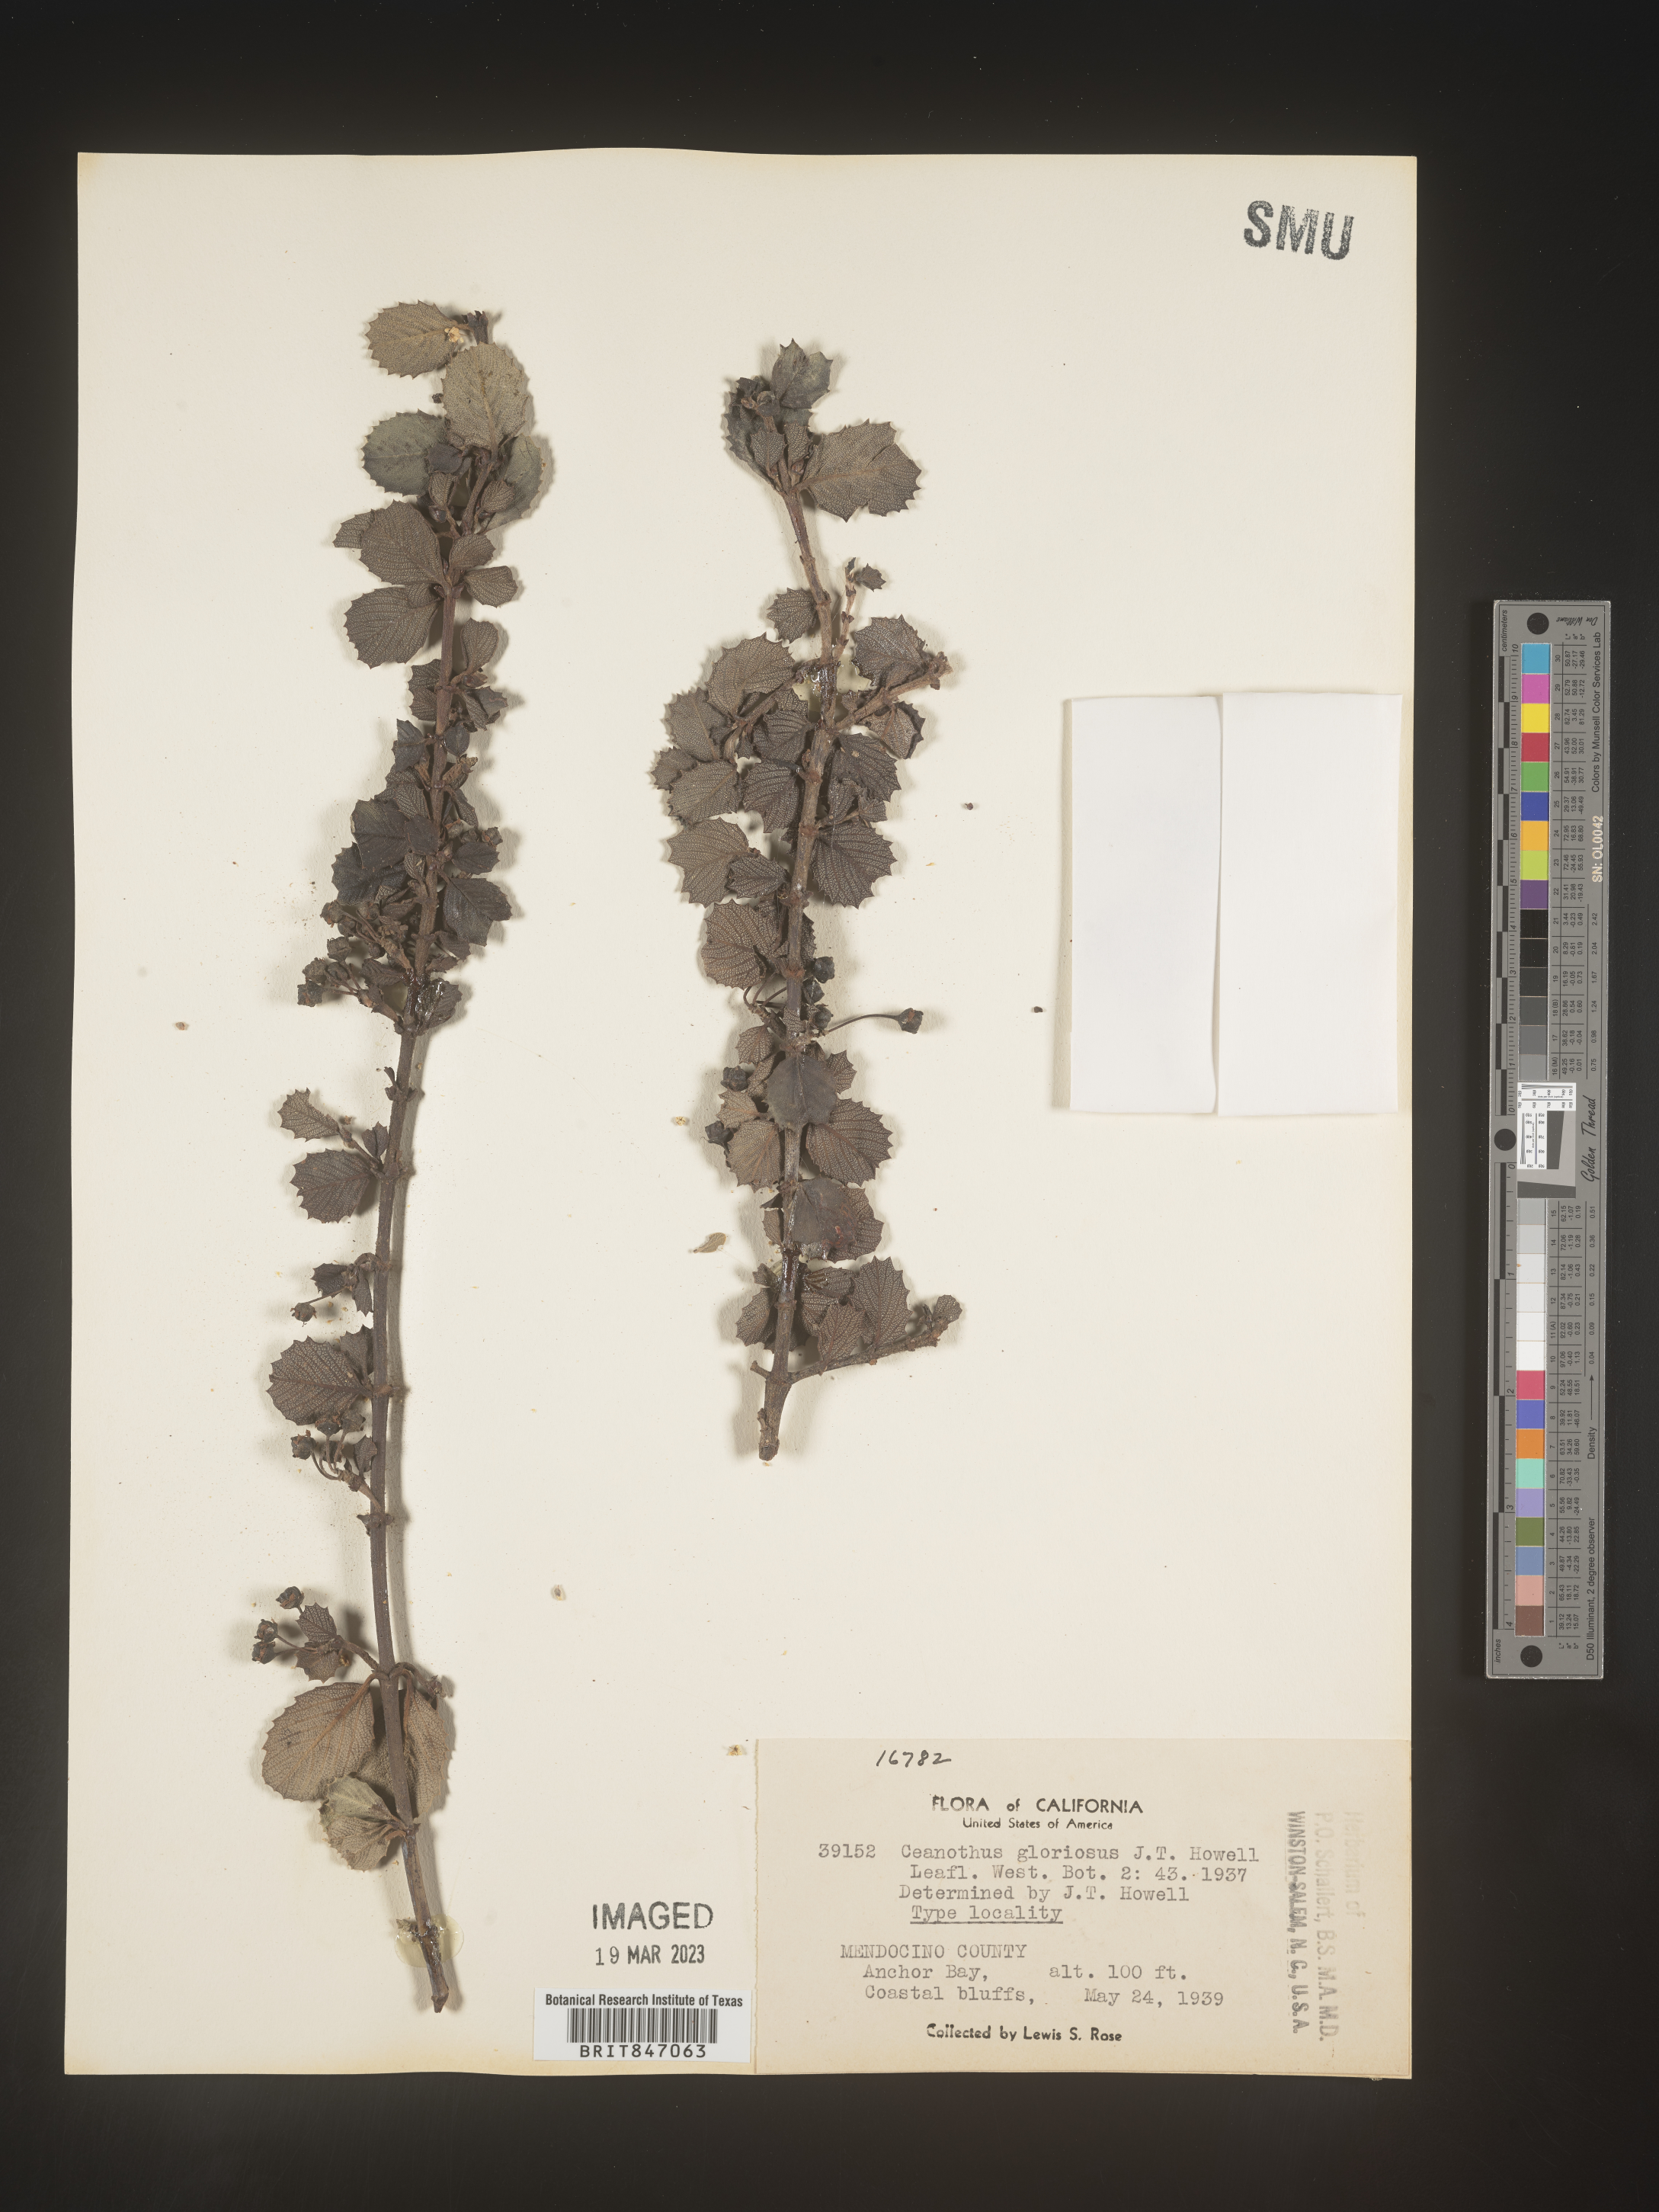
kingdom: Plantae
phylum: Tracheophyta
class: Magnoliopsida
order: Rosales
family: Rhamnaceae
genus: Ceanothus
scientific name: Ceanothus
